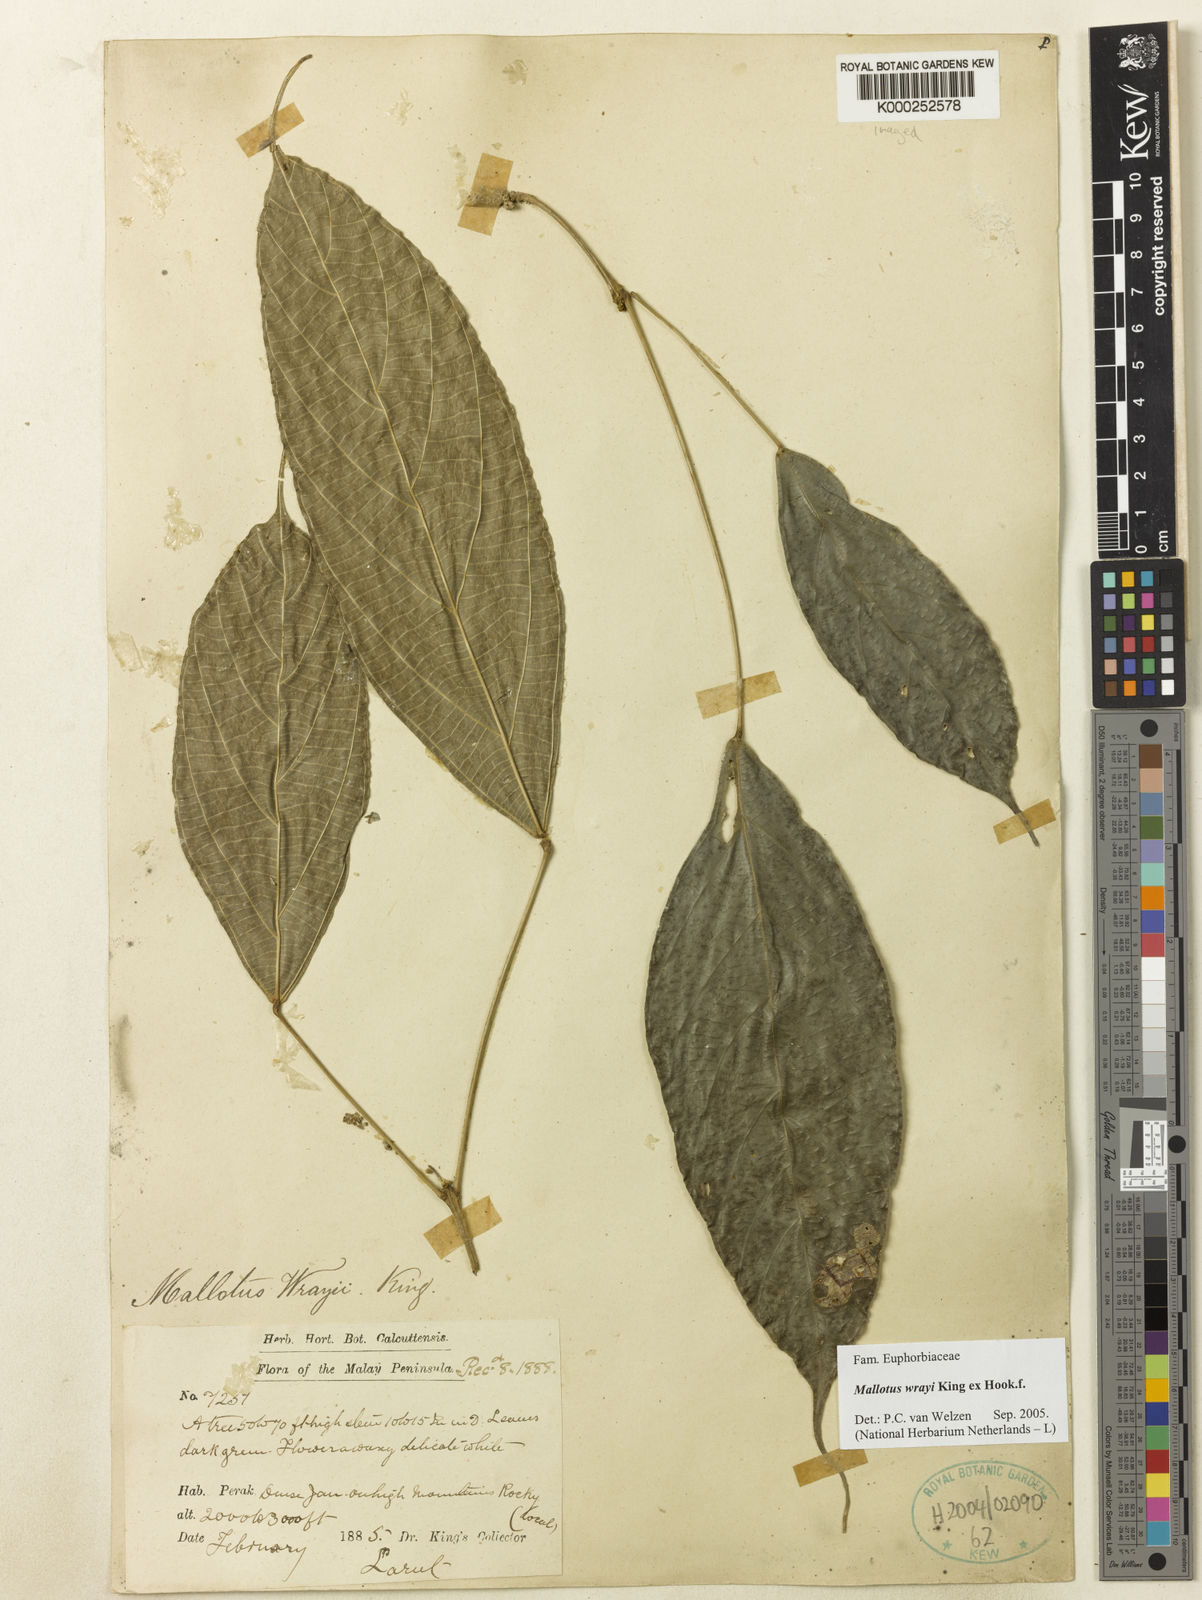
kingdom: Plantae
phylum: Tracheophyta
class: Magnoliopsida
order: Malpighiales
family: Euphorbiaceae
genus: Mallotus
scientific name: Mallotus wrayi
